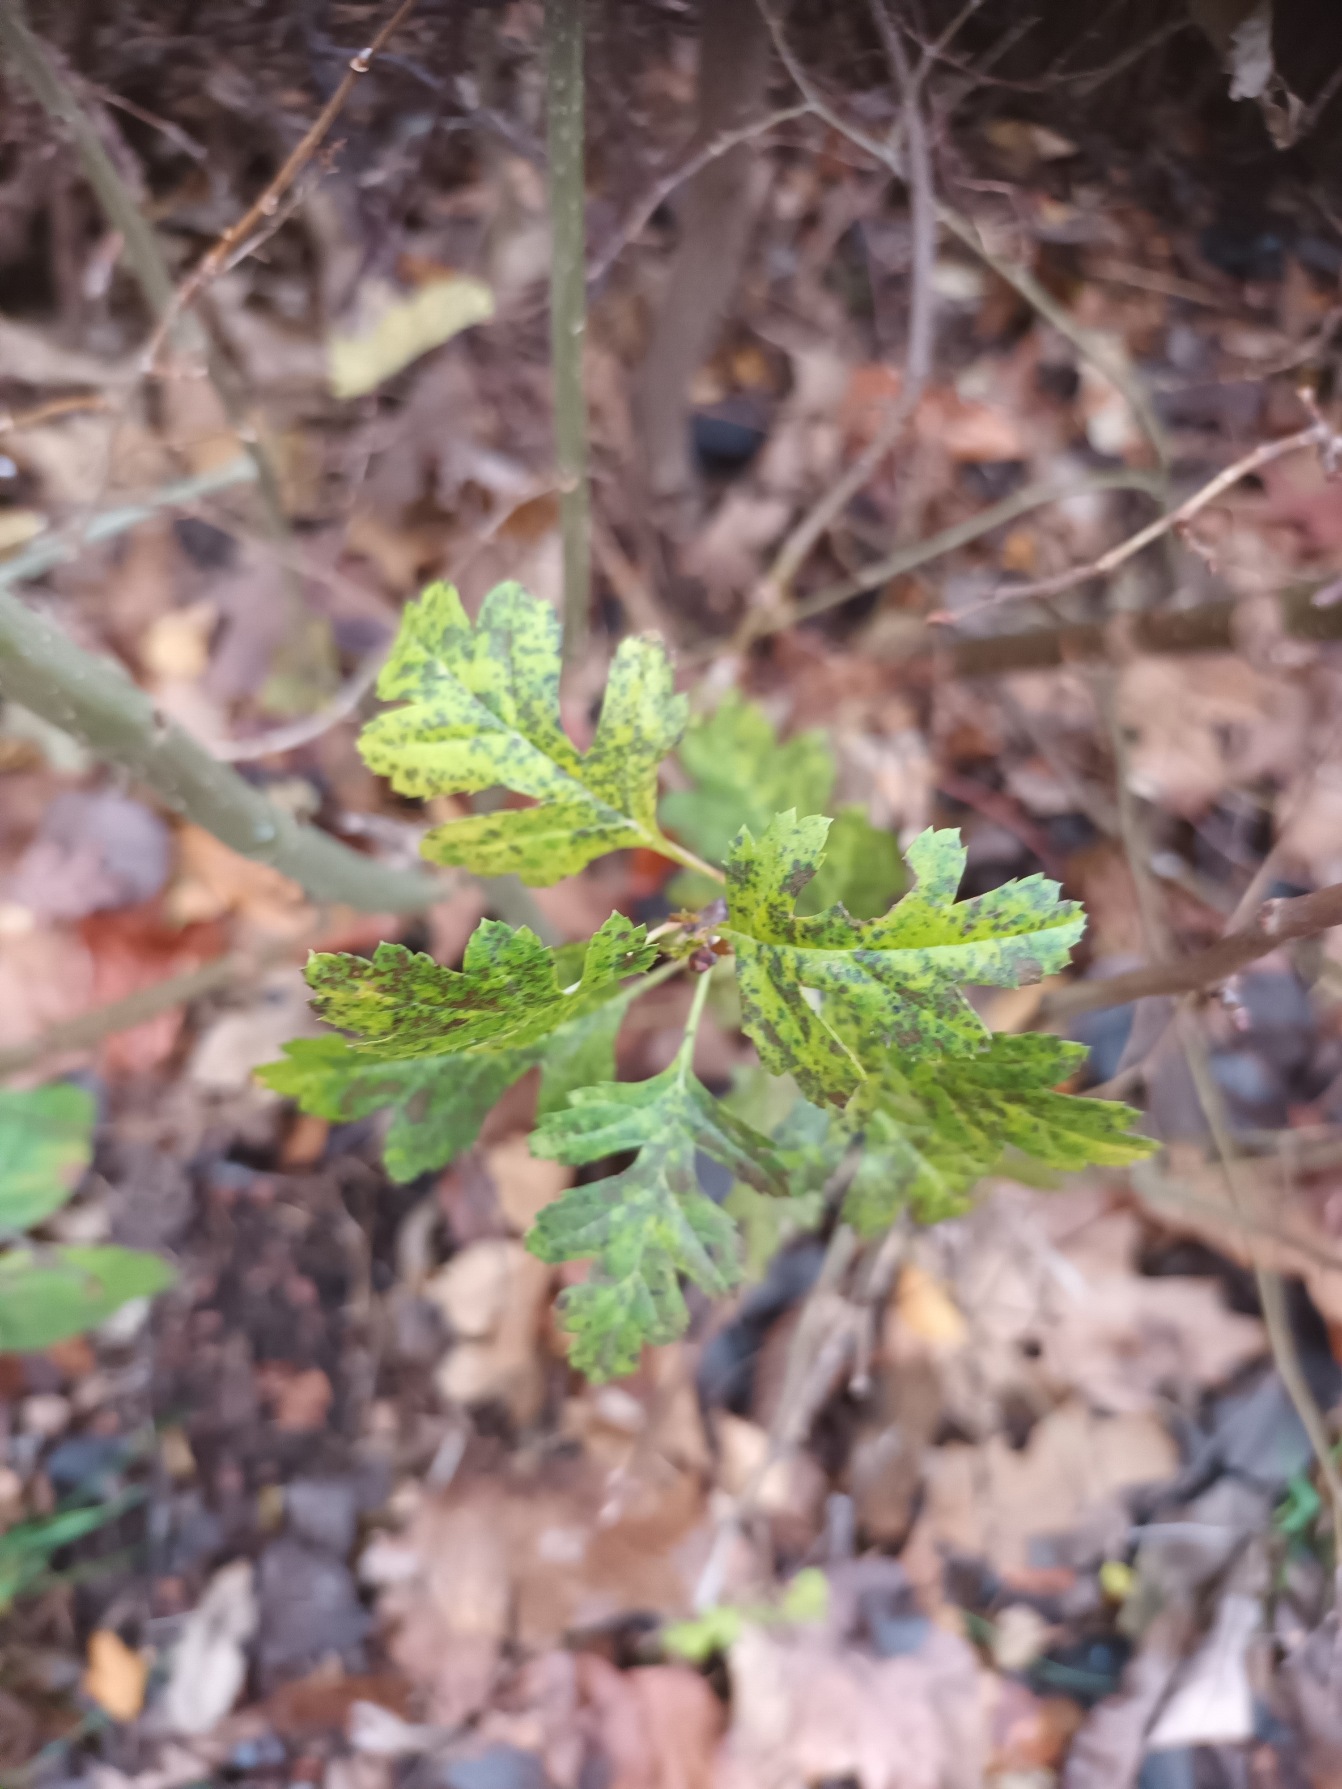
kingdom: Plantae
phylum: Tracheophyta
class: Magnoliopsida
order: Rosales
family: Rosaceae
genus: Crataegus
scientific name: Crataegus monogyna
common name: Engriflet hvidtjørn
